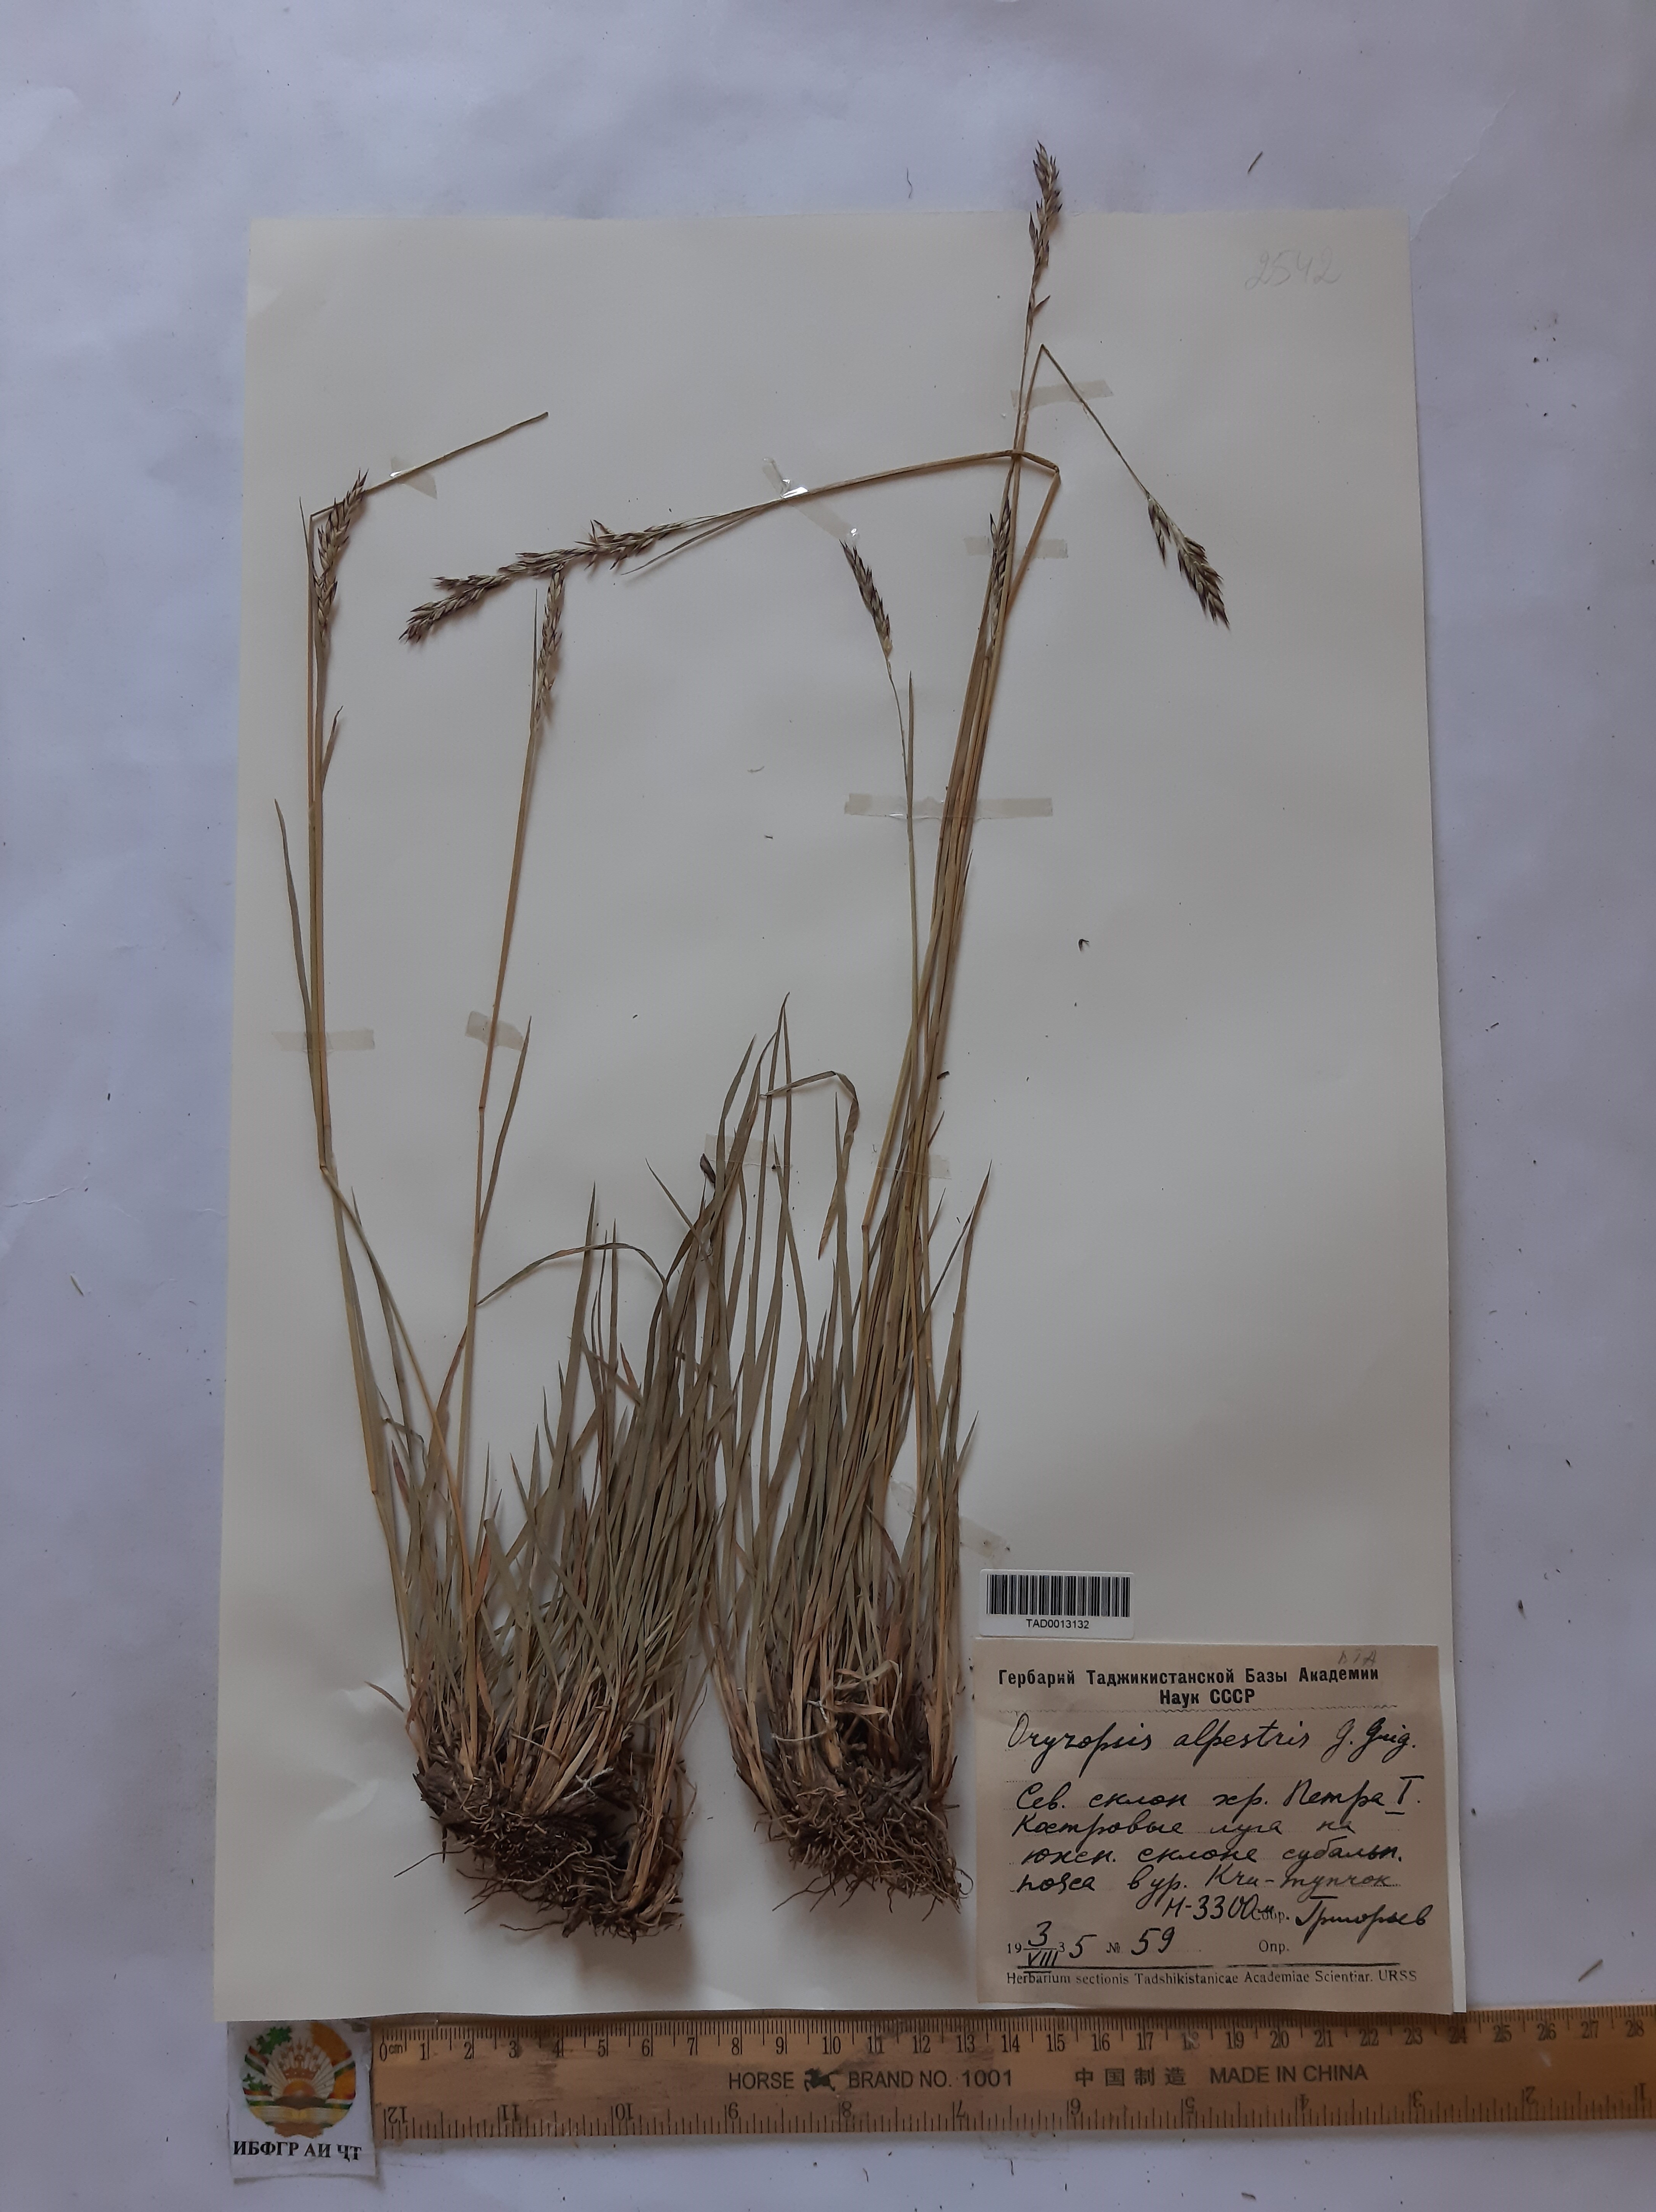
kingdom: Plantae
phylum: Tracheophyta
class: Liliopsida
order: Poales
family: Poaceae
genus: Piptatherum
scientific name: Piptatherum alpestre
